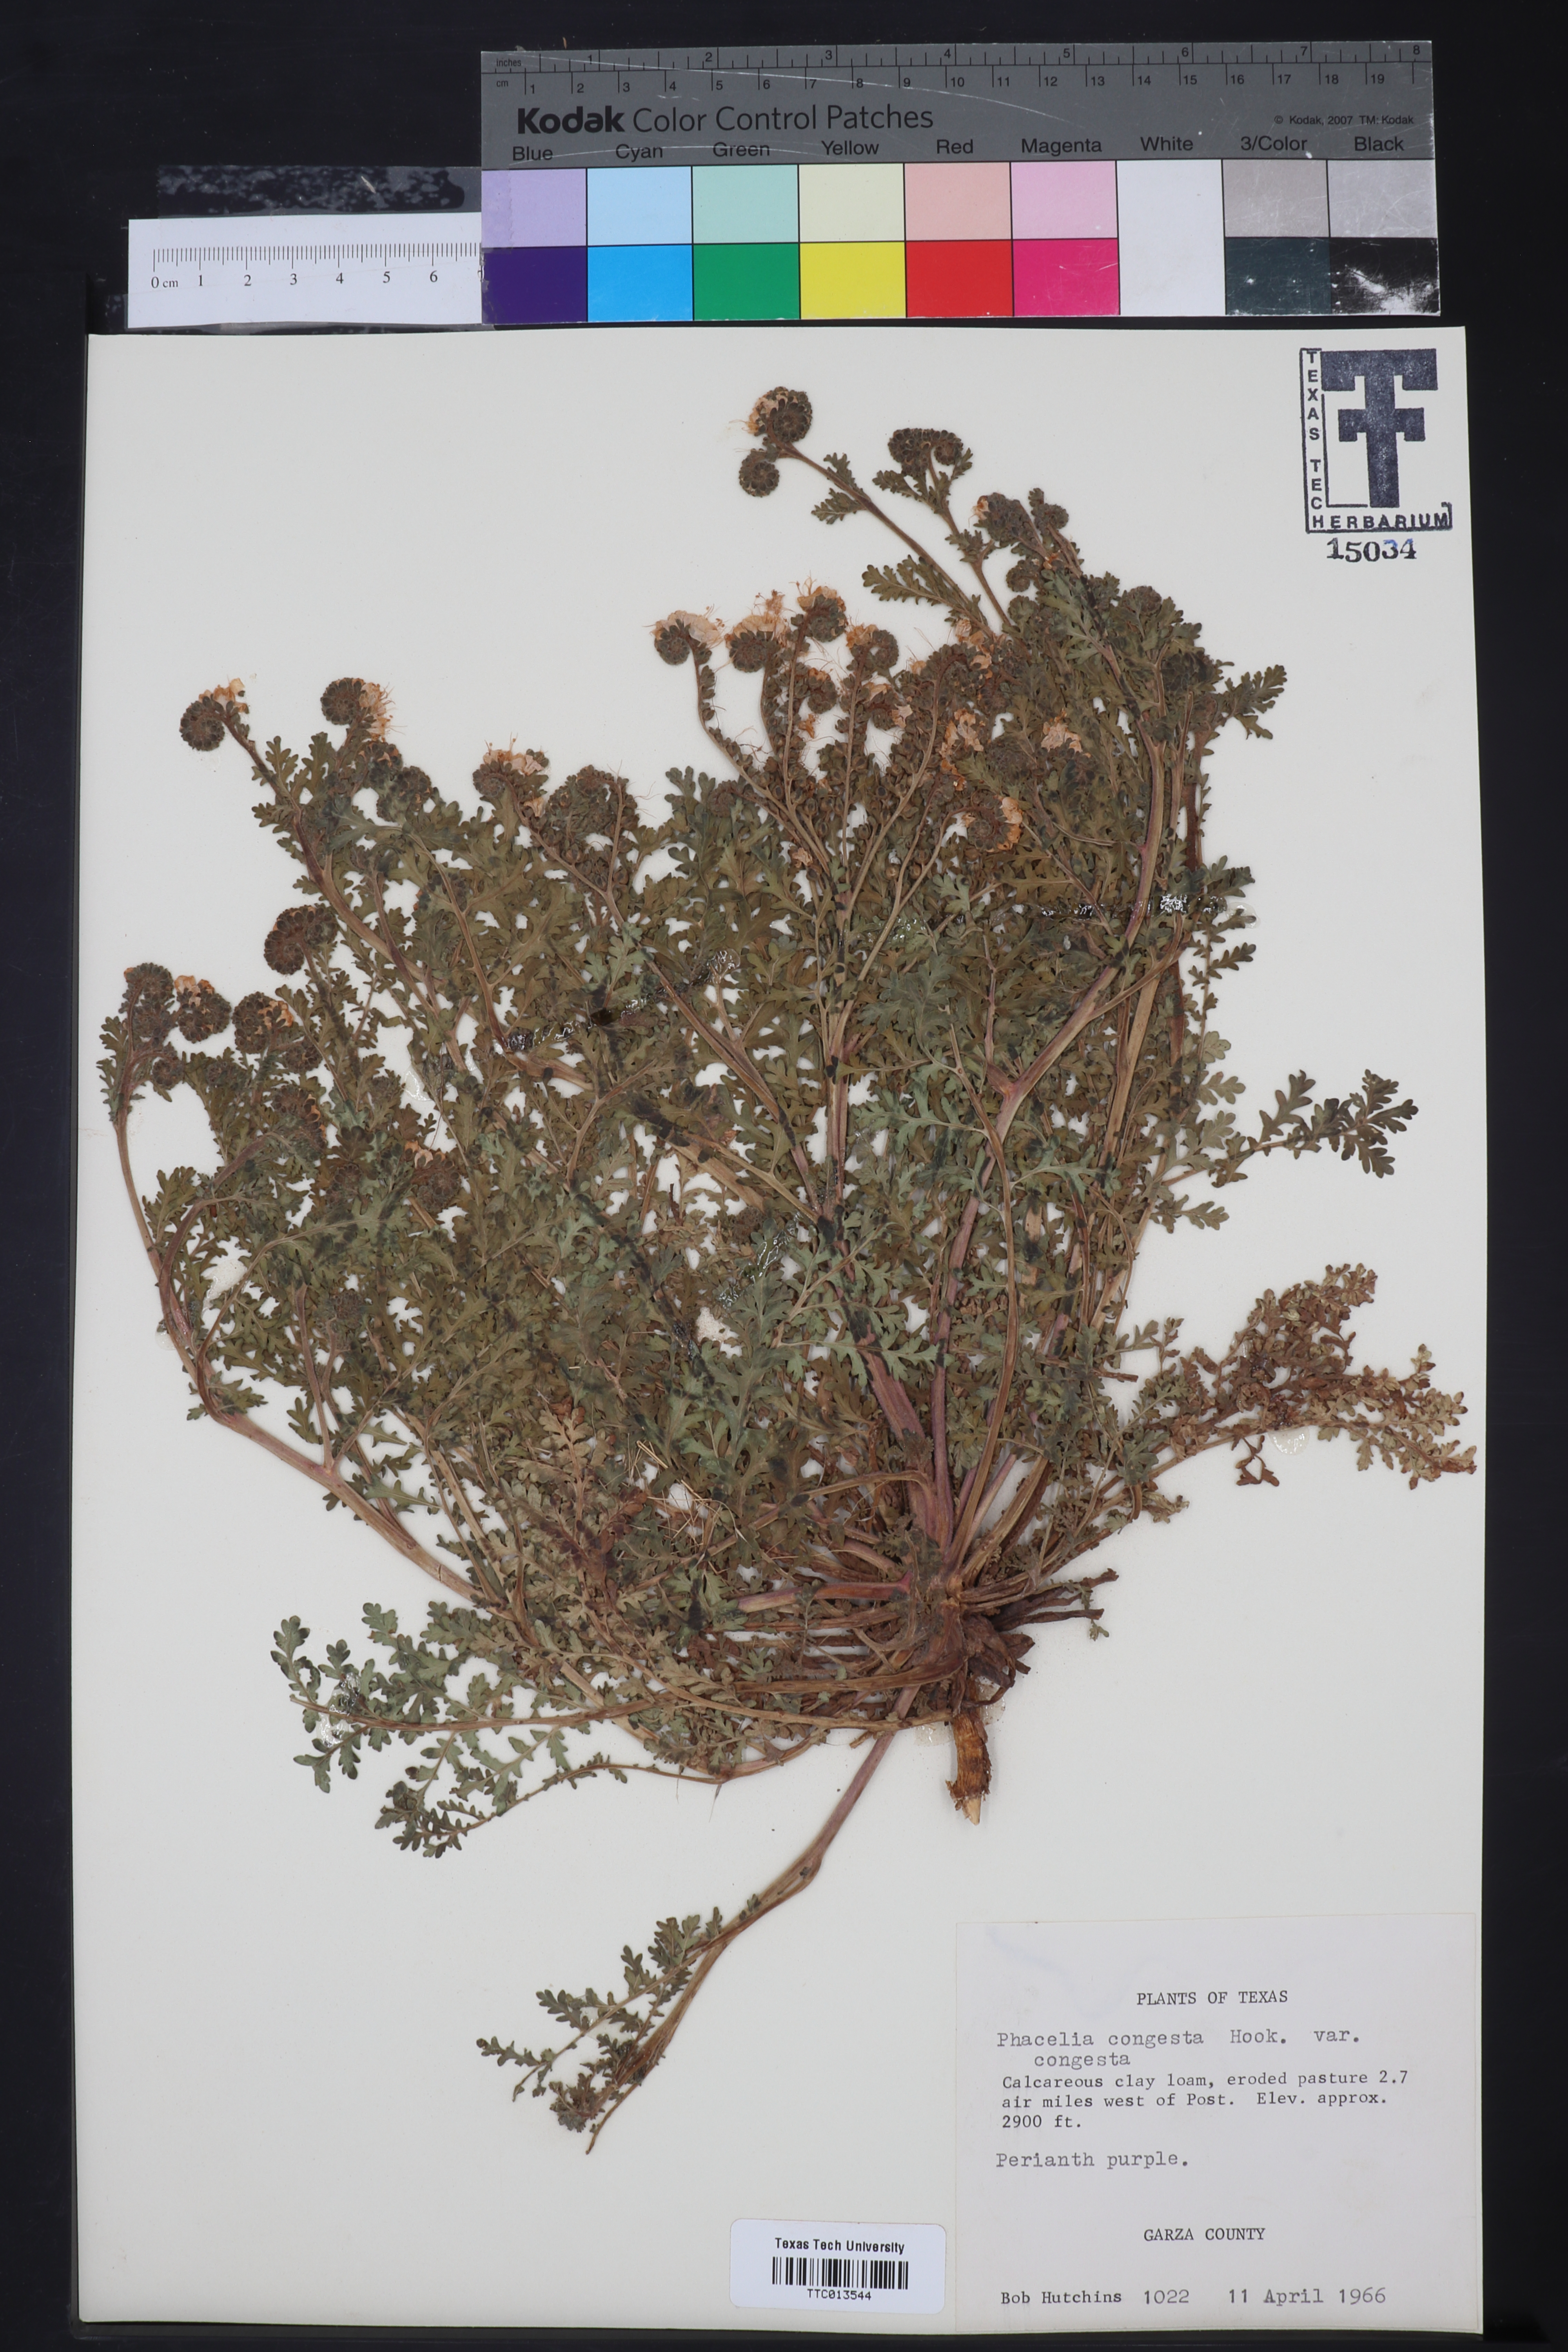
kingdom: Plantae
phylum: Tracheophyta
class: Magnoliopsida
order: Boraginales
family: Hydrophyllaceae
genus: Phacelia
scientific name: Phacelia congesta
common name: Blue curls
